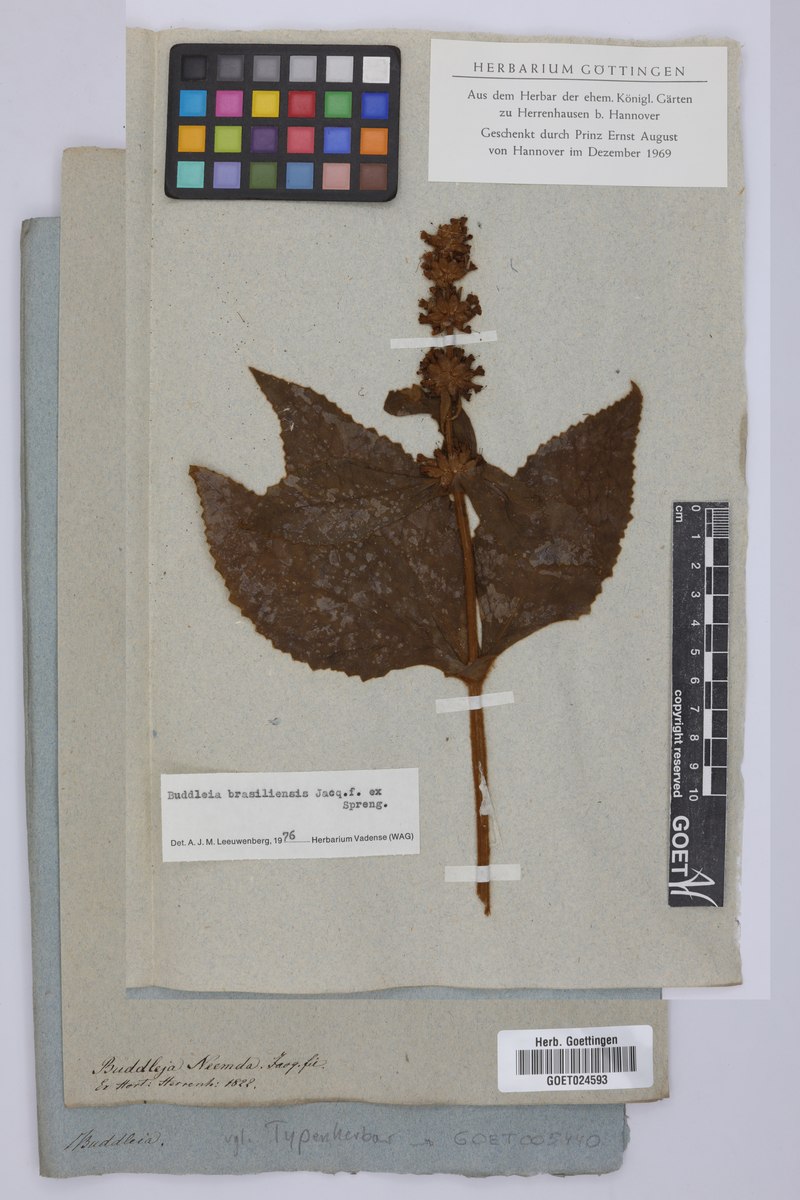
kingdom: Plantae
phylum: Tracheophyta
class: Magnoliopsida
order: Lamiales
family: Scrophulariaceae
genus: Buddleja
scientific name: Buddleja brasiliensis
